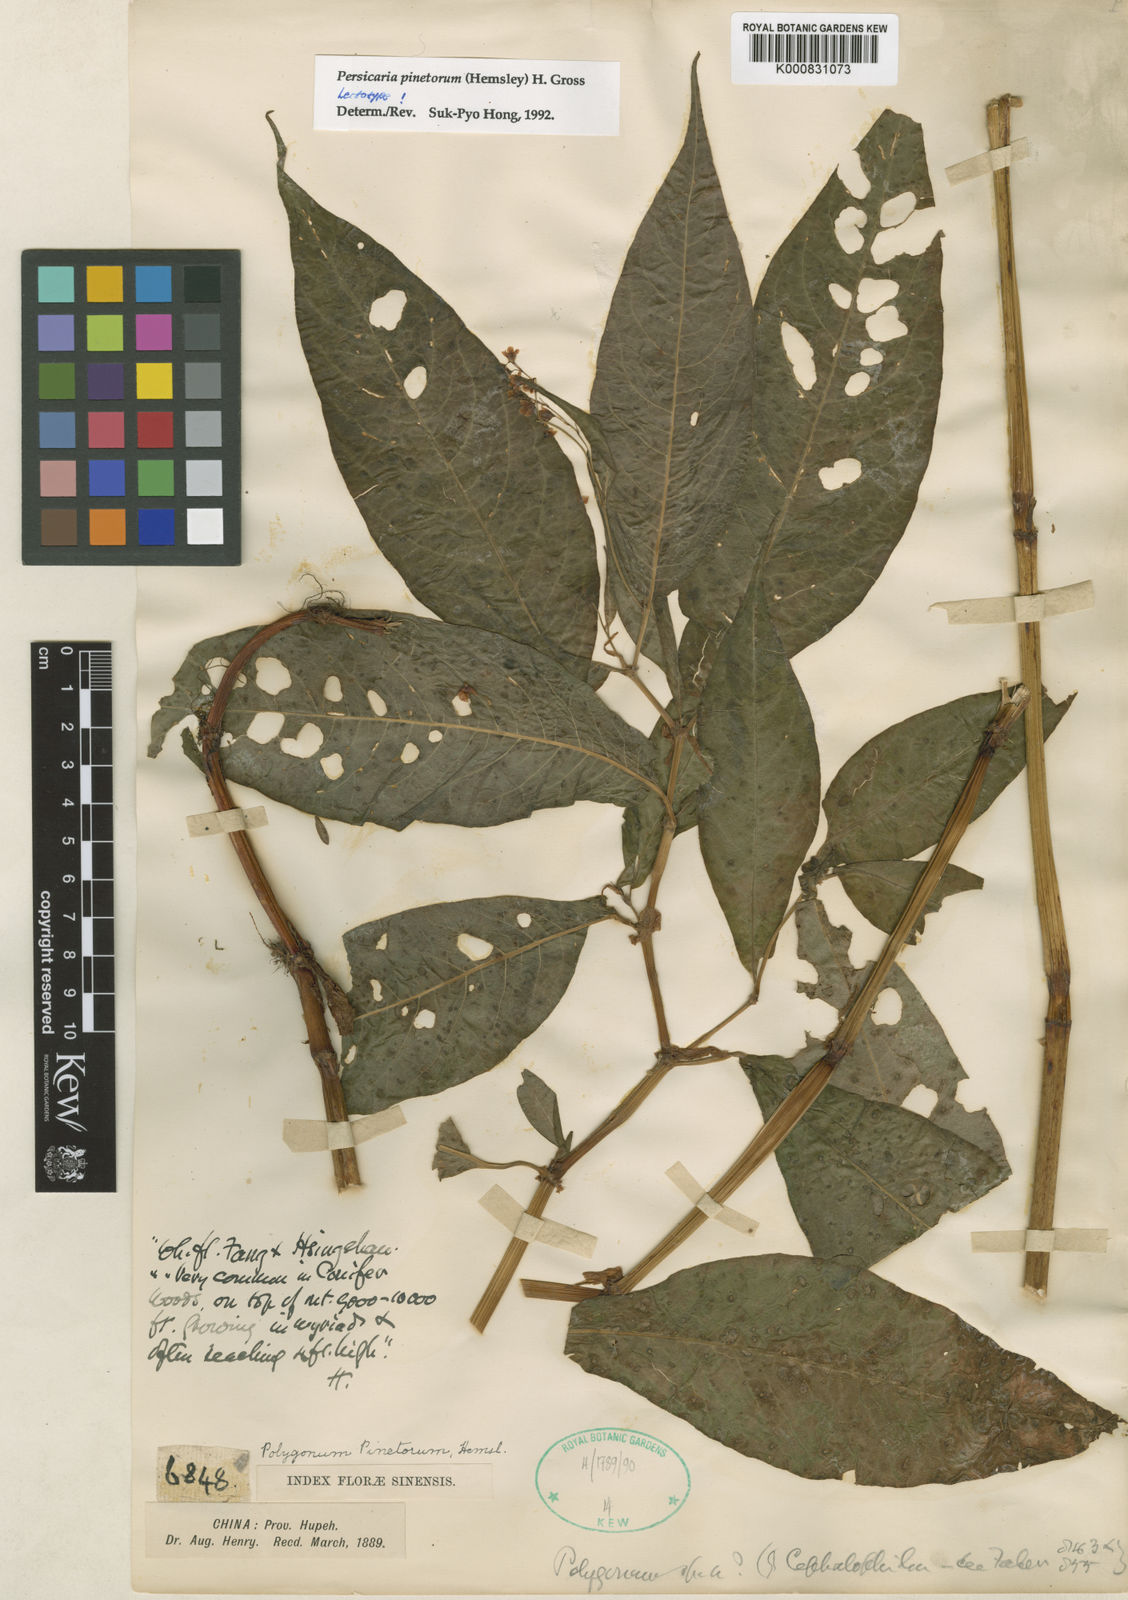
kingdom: Plantae
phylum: Tracheophyta
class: Magnoliopsida
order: Caryophyllales
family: Polygonaceae
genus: Persicaria
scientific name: Persicaria pinetora
